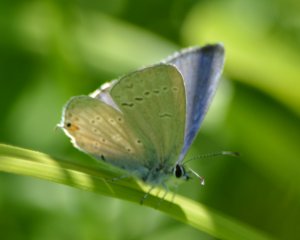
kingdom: Animalia
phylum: Arthropoda
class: Insecta
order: Lepidoptera
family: Lycaenidae
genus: Elkalyce
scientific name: Elkalyce amyntula
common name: Western Tailed-Blue
